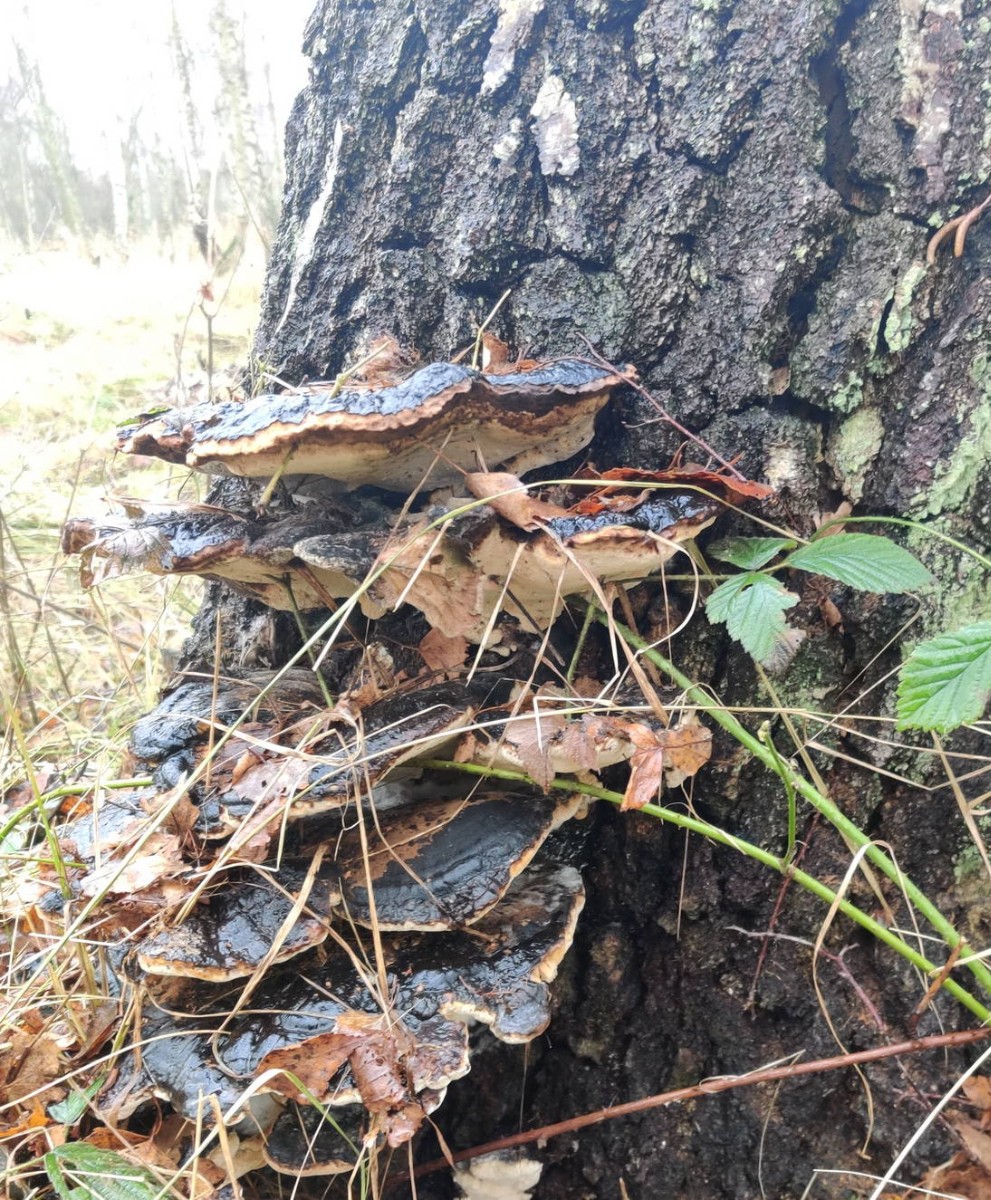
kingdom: Fungi
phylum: Basidiomycota
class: Agaricomycetes
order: Polyporales
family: Ischnodermataceae
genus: Ischnoderma
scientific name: Ischnoderma resinosum
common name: løv-tjæreporesvamp
